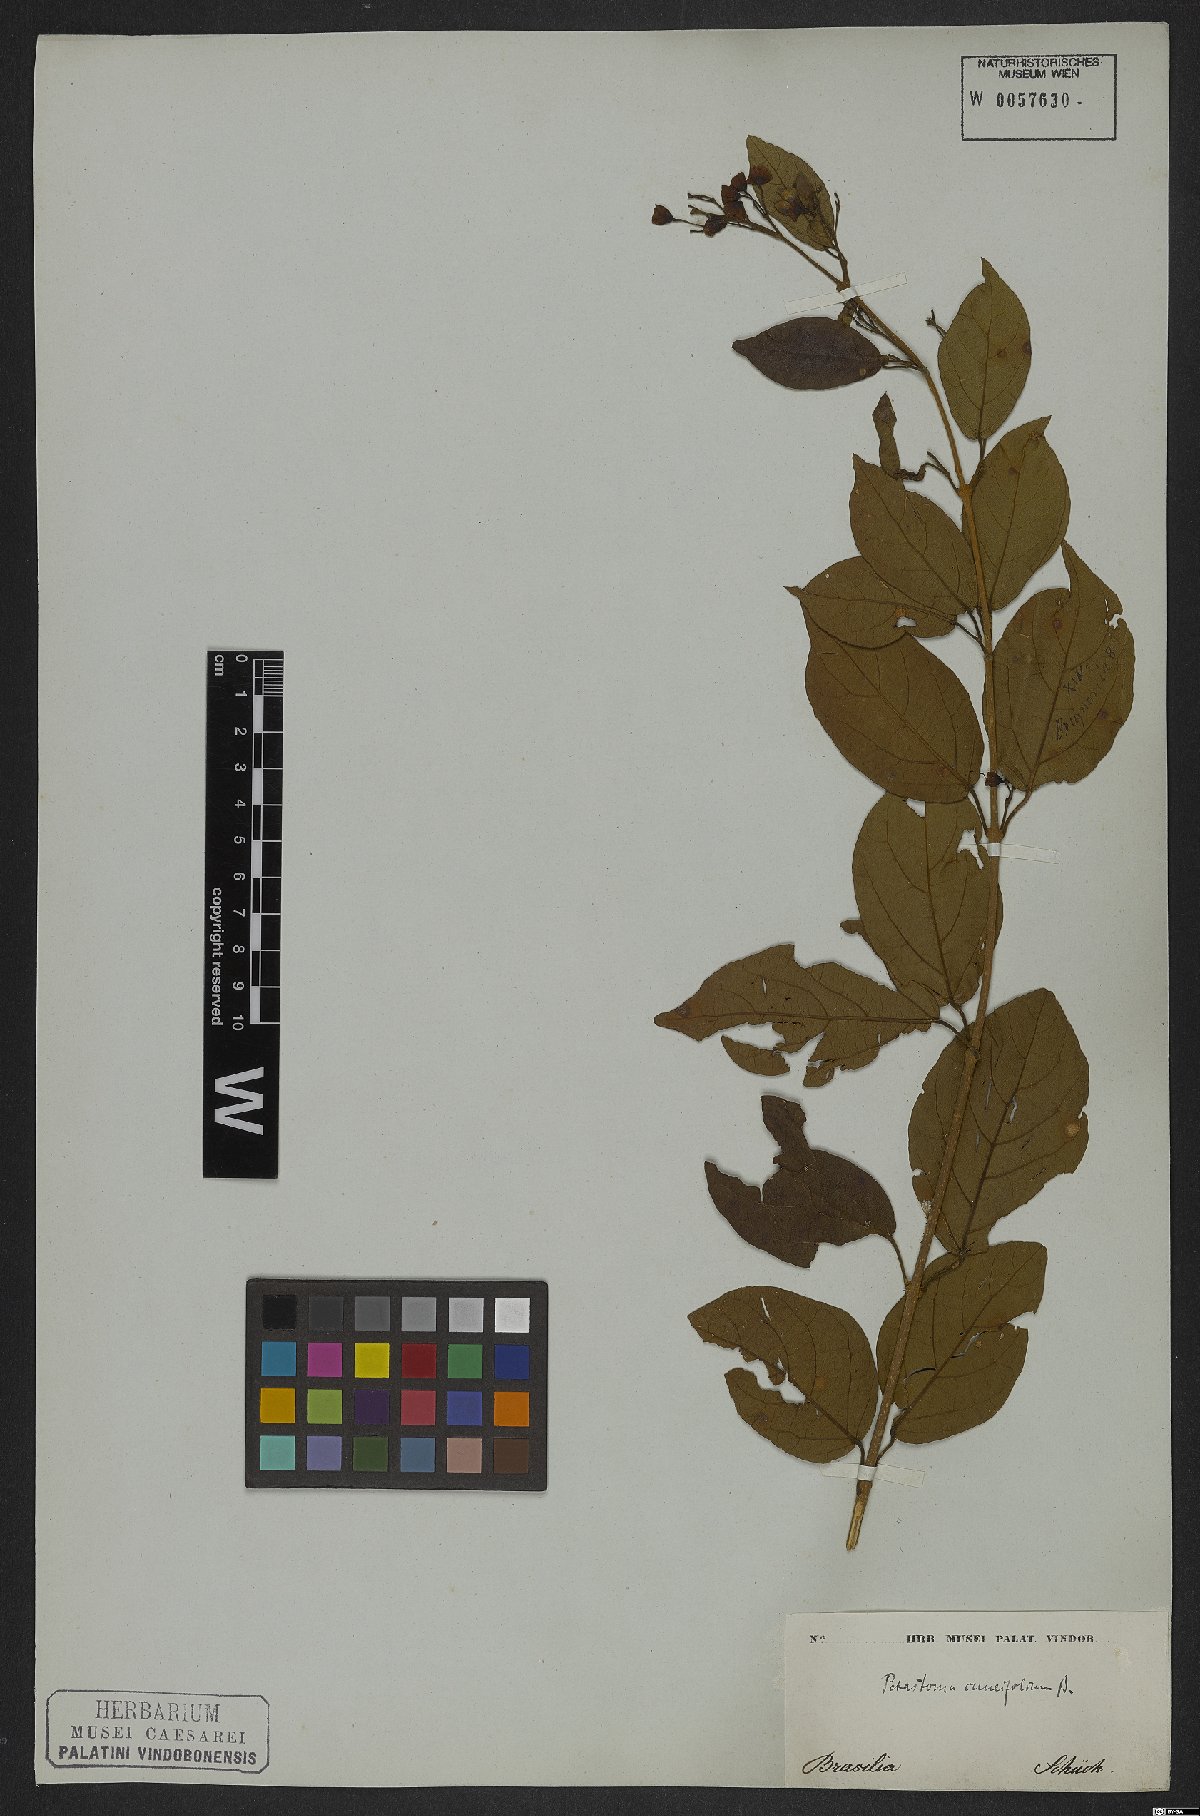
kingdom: Plantae
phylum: Tracheophyta
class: Magnoliopsida
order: Lamiales
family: Bignoniaceae
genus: Fridericia
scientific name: Fridericia cuneifolia
